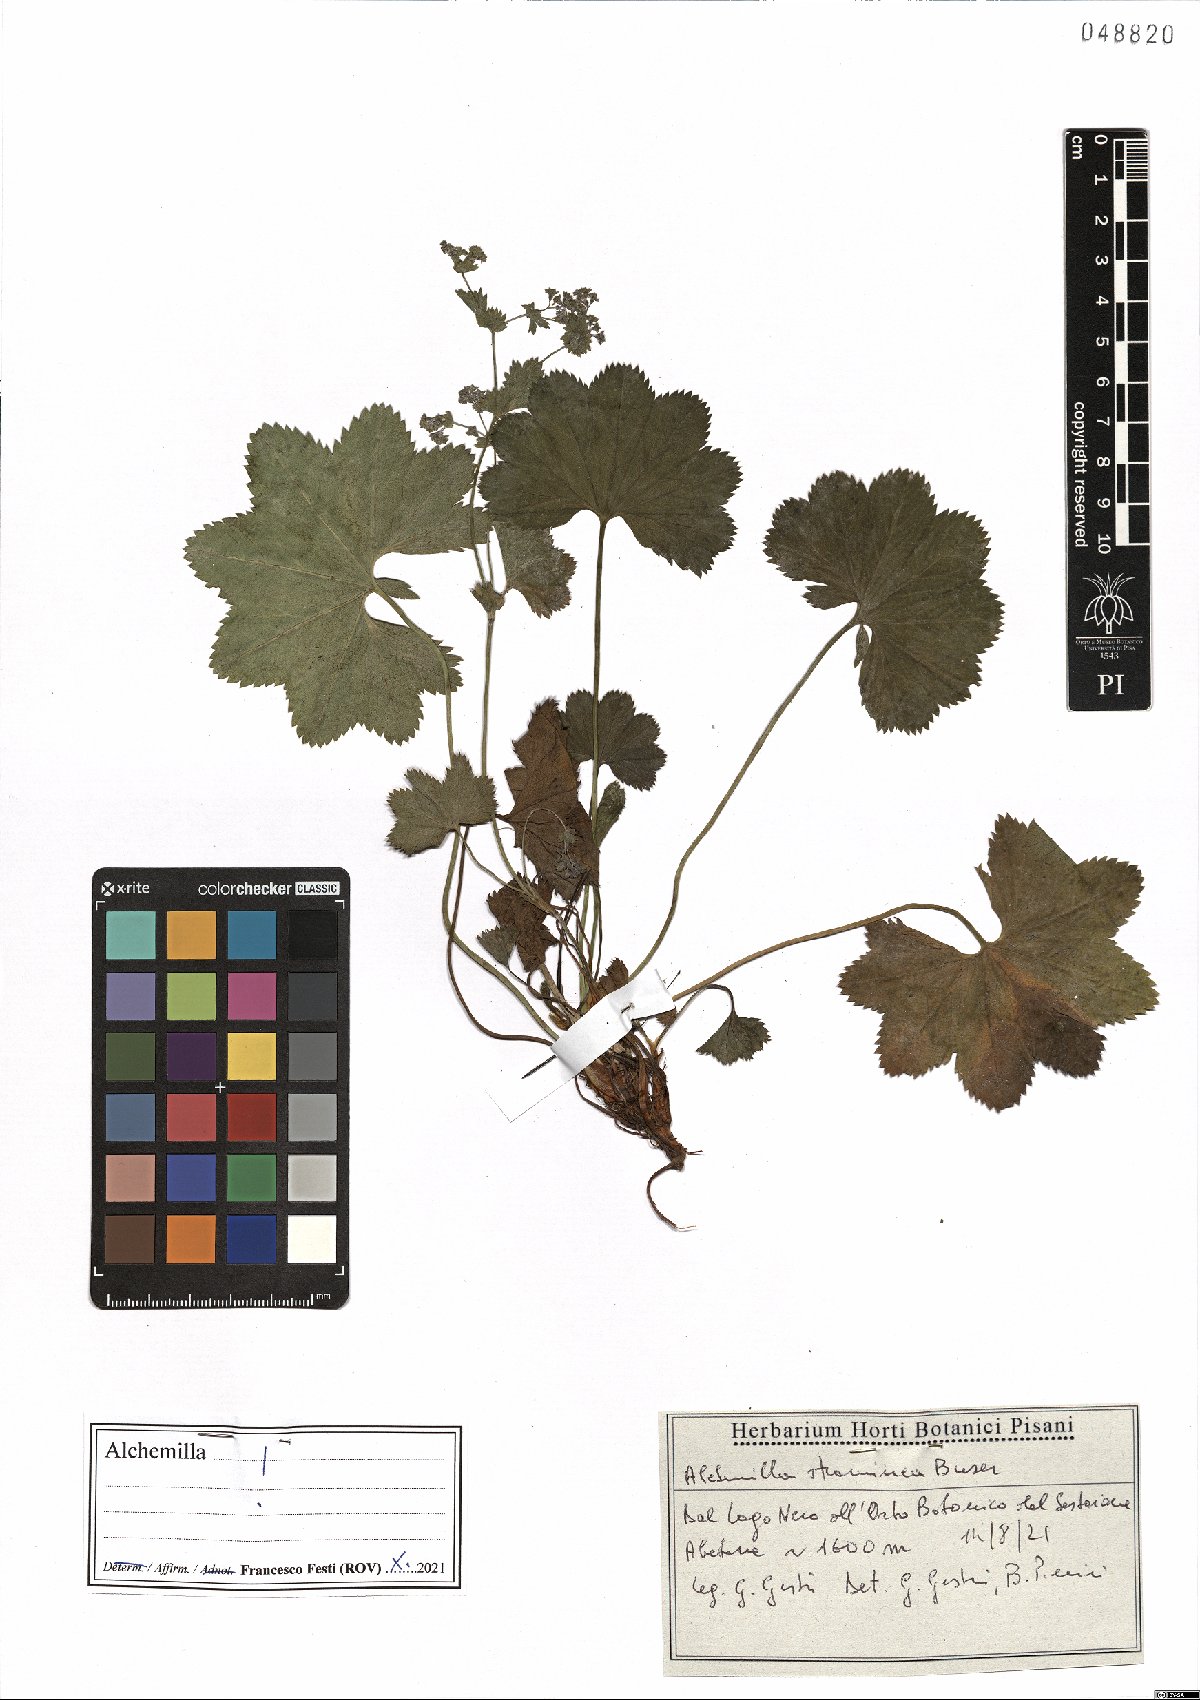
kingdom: Plantae
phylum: Tracheophyta
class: Magnoliopsida
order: Rosales
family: Rosaceae
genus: Alchemilla
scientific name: Alchemilla straminea
